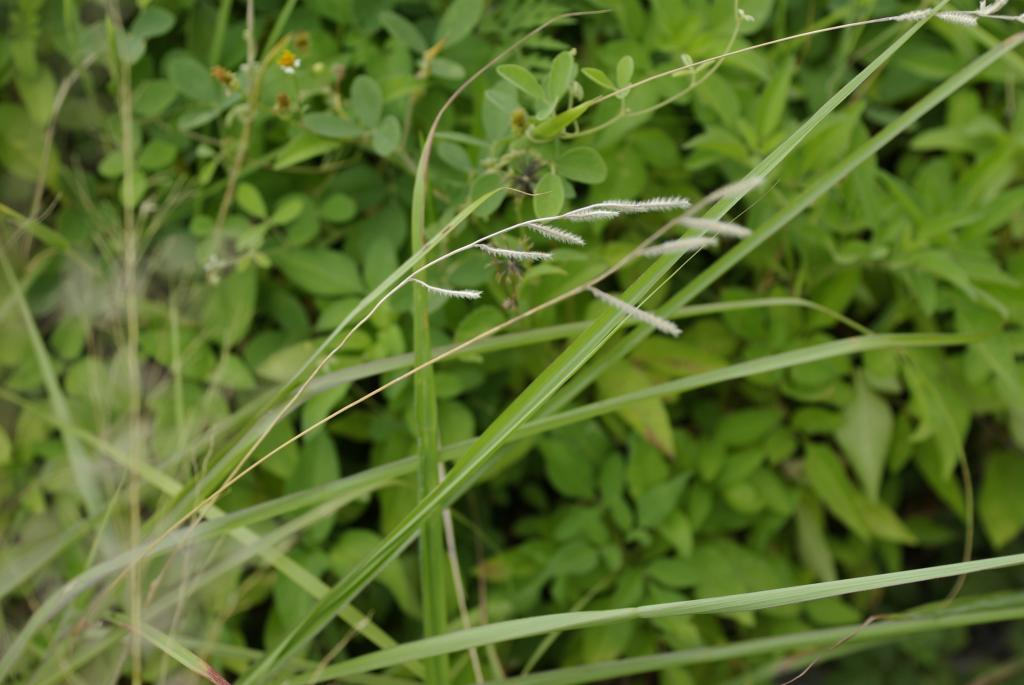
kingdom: Plantae
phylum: Tracheophyta
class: Liliopsida
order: Poales
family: Poaceae
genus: Eriochloa
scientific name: Eriochloa villosa
